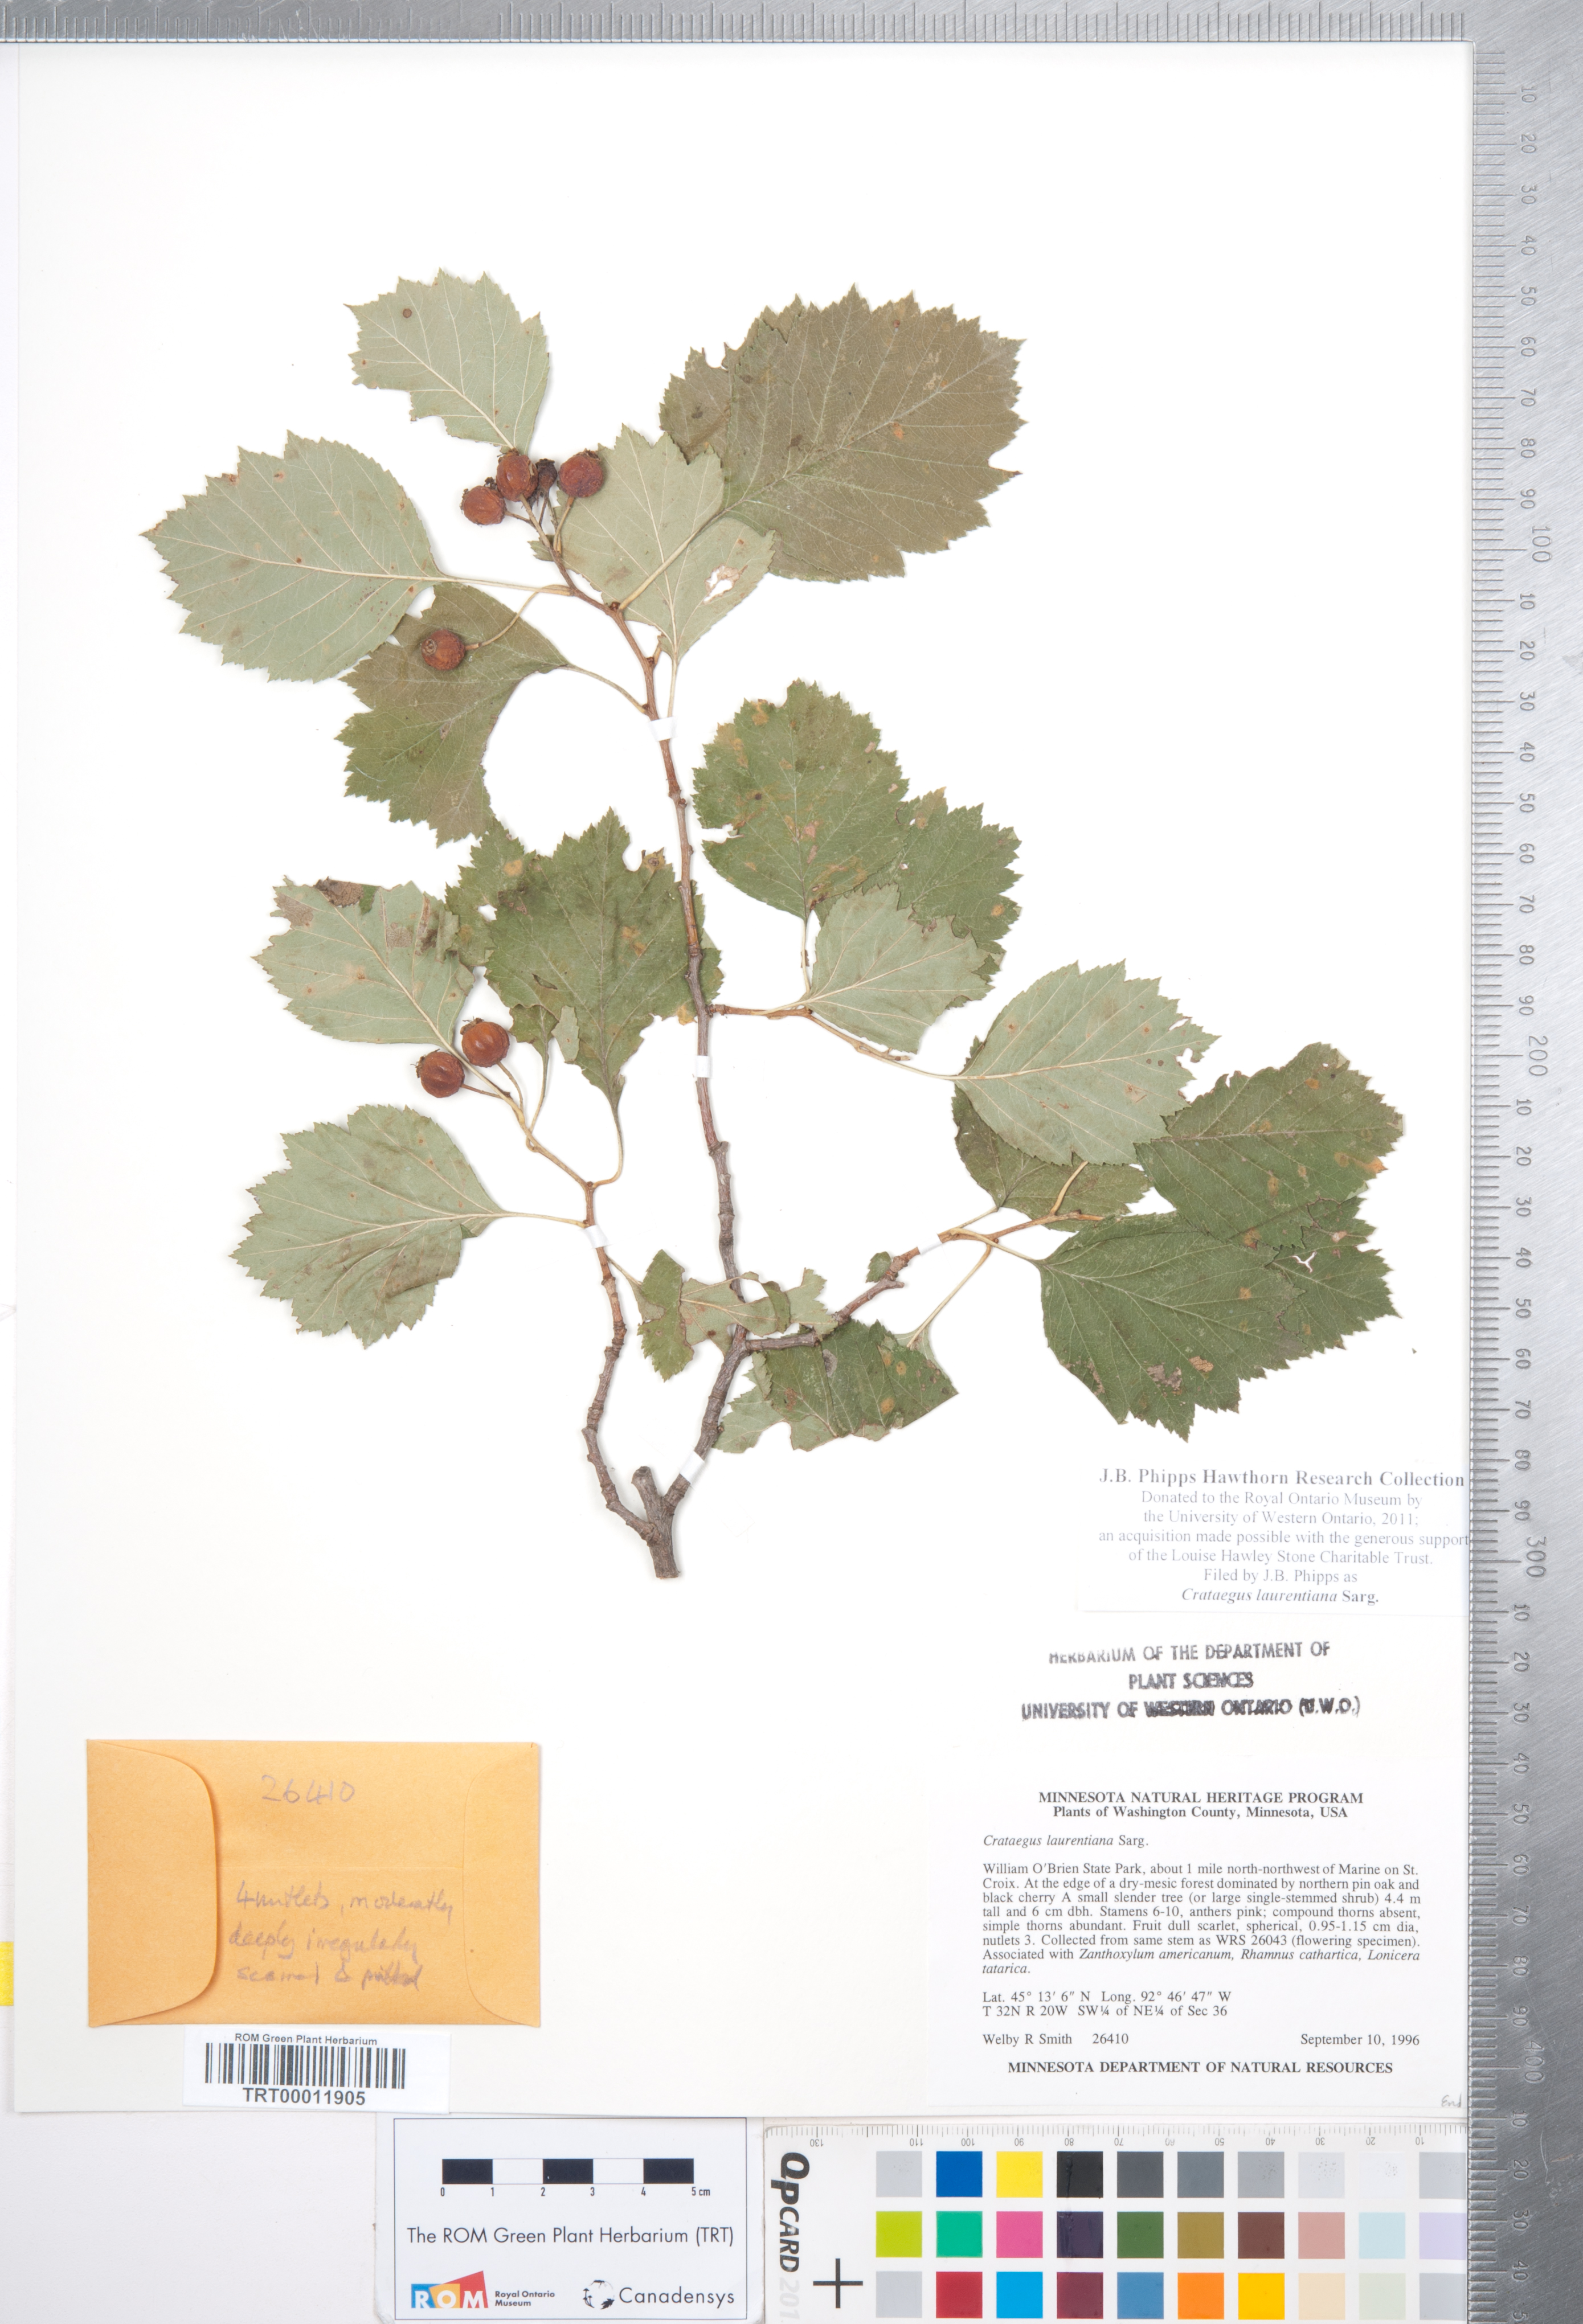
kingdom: Plantae
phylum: Tracheophyta
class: Magnoliopsida
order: Rosales
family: Rosaceae
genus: Crataegus
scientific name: Crataegus jonesiae
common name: Jones' hawthorn
